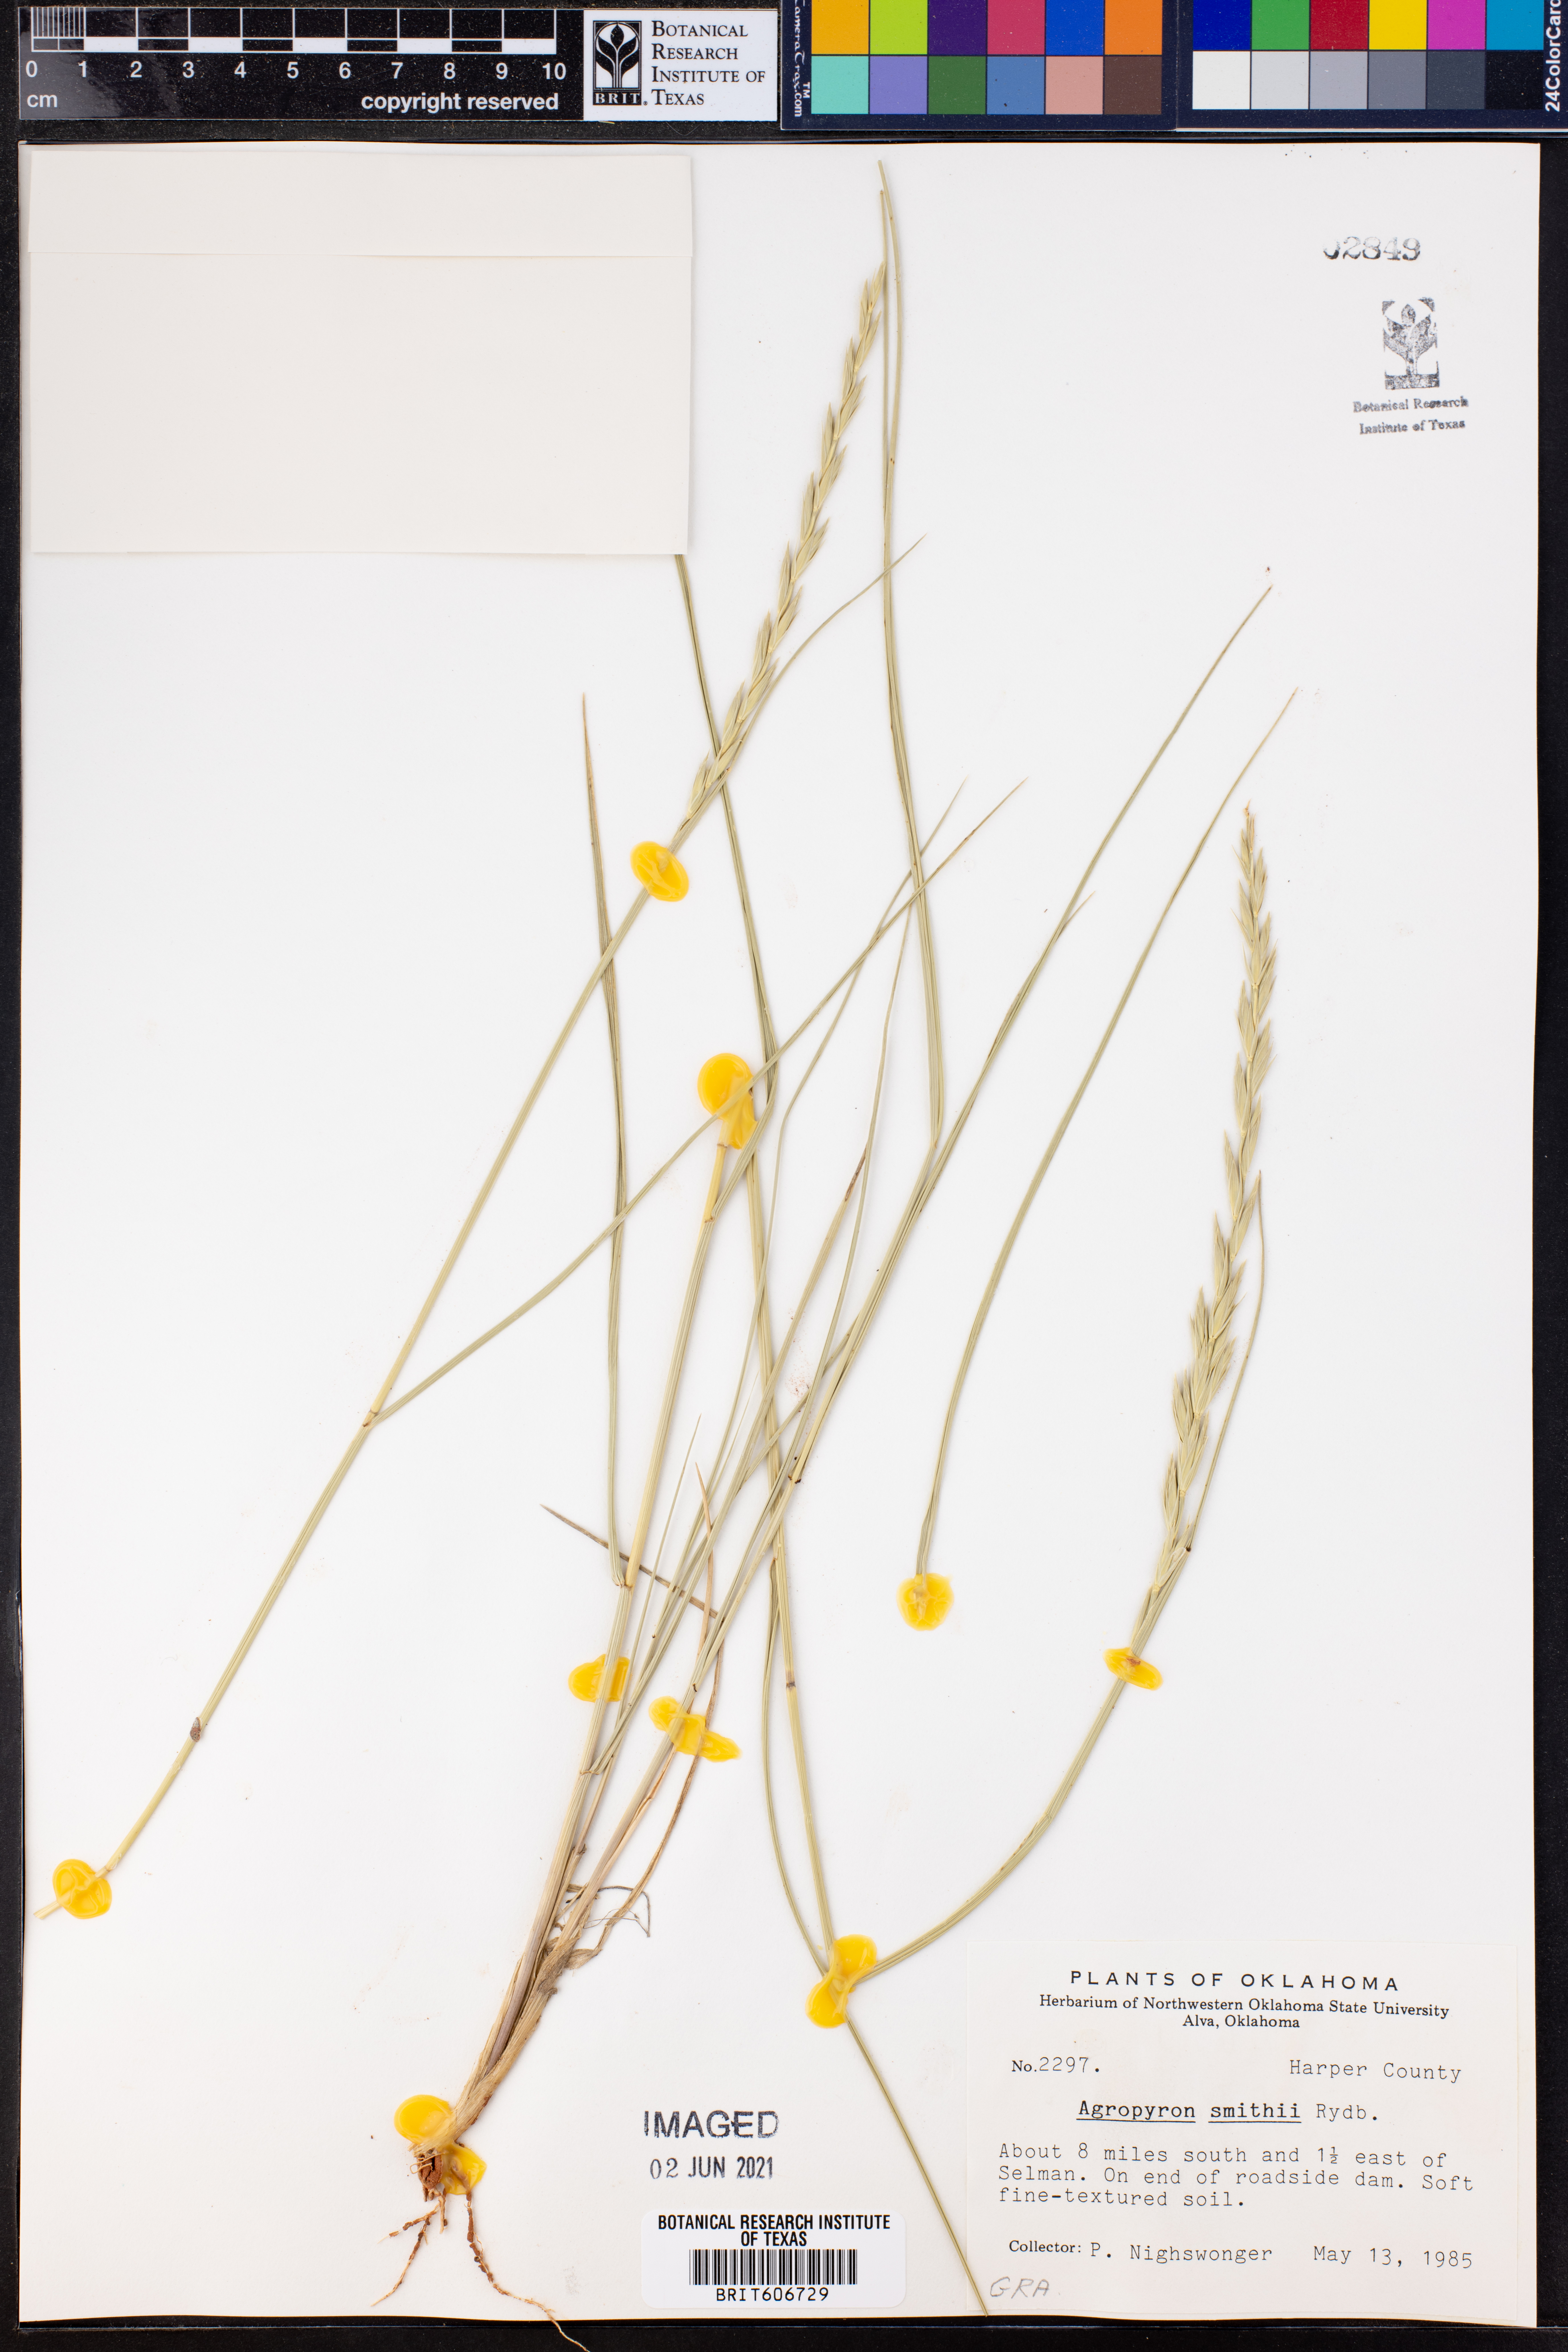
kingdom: Plantae
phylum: Tracheophyta
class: Liliopsida
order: Poales
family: Poaceae
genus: Elymus
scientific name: Elymus smithii
